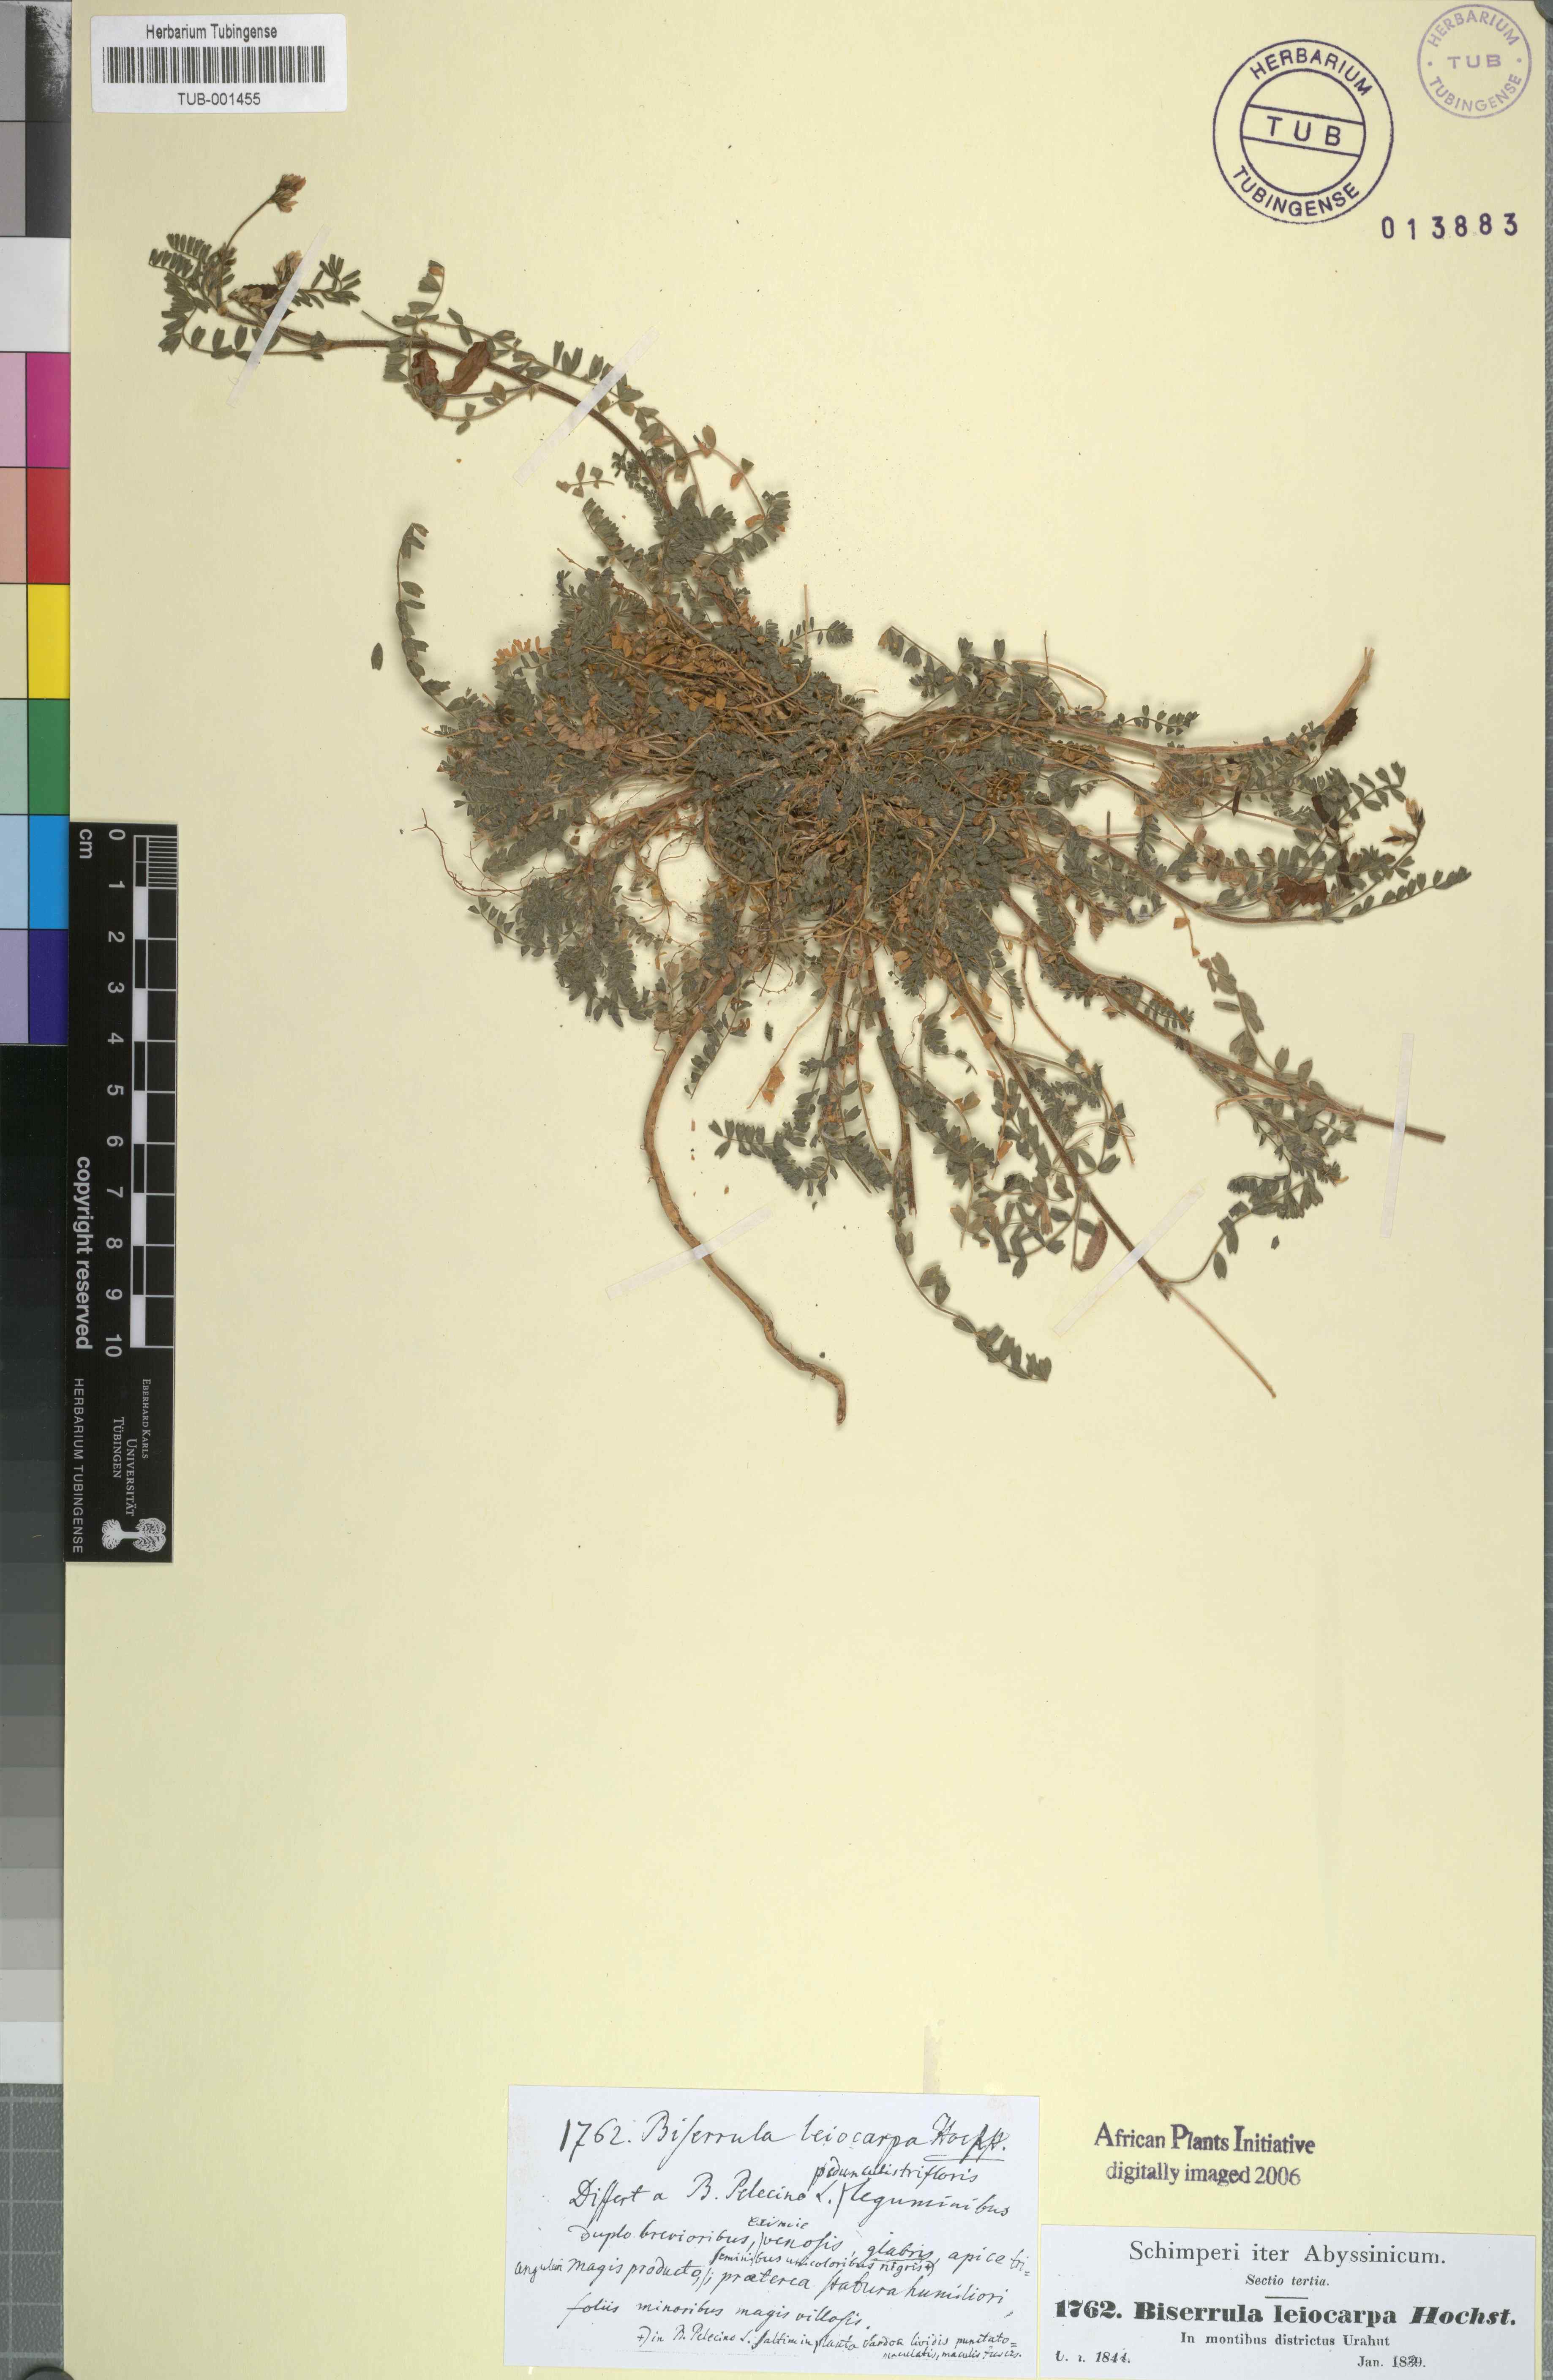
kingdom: Plantae
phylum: Tracheophyta
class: Magnoliopsida
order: Fabales
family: Fabaceae
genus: Biserrula
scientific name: Biserrula pelecinus
